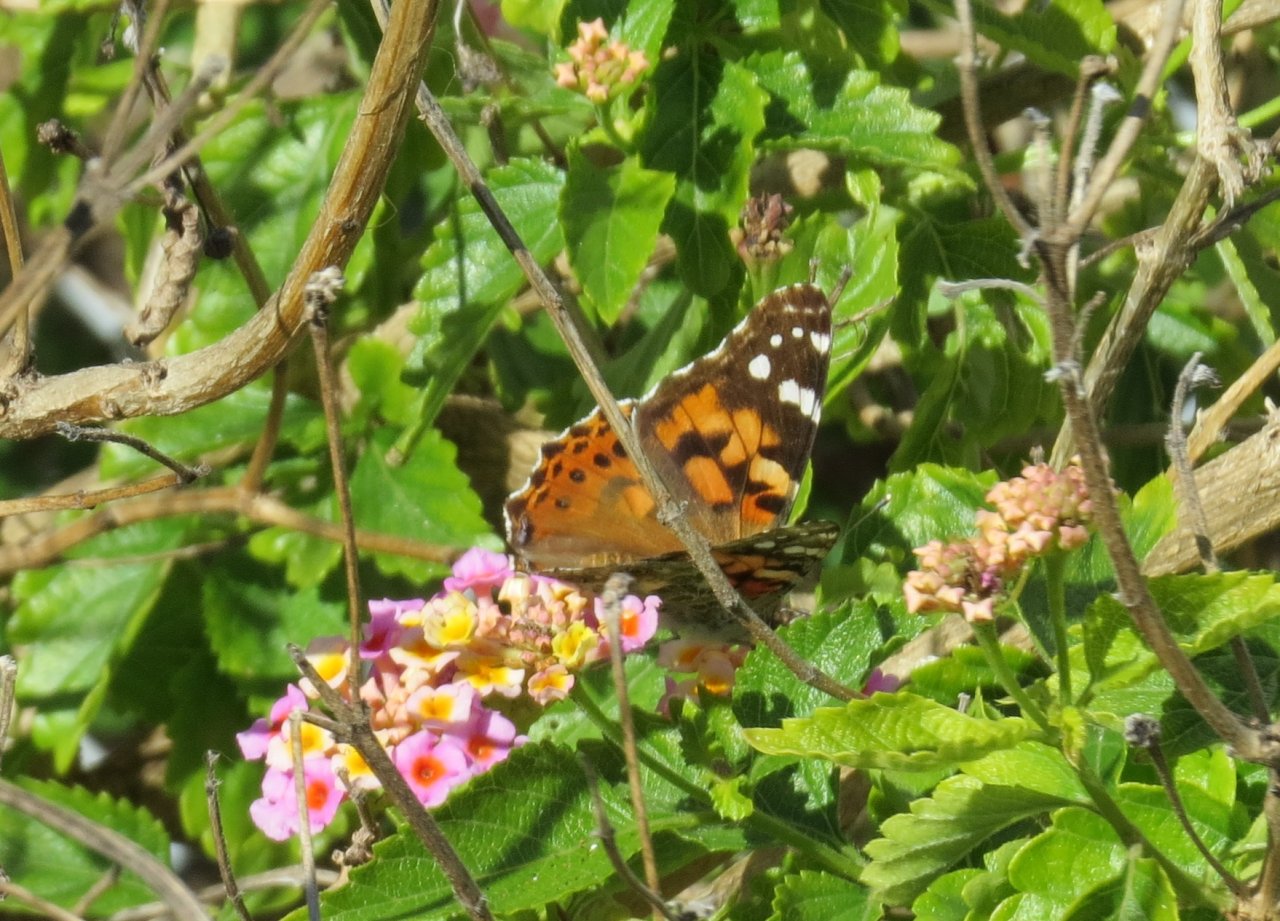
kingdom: Animalia
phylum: Arthropoda
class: Insecta
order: Lepidoptera
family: Nymphalidae
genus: Vanessa
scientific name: Vanessa cardui
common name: Painted Lady
